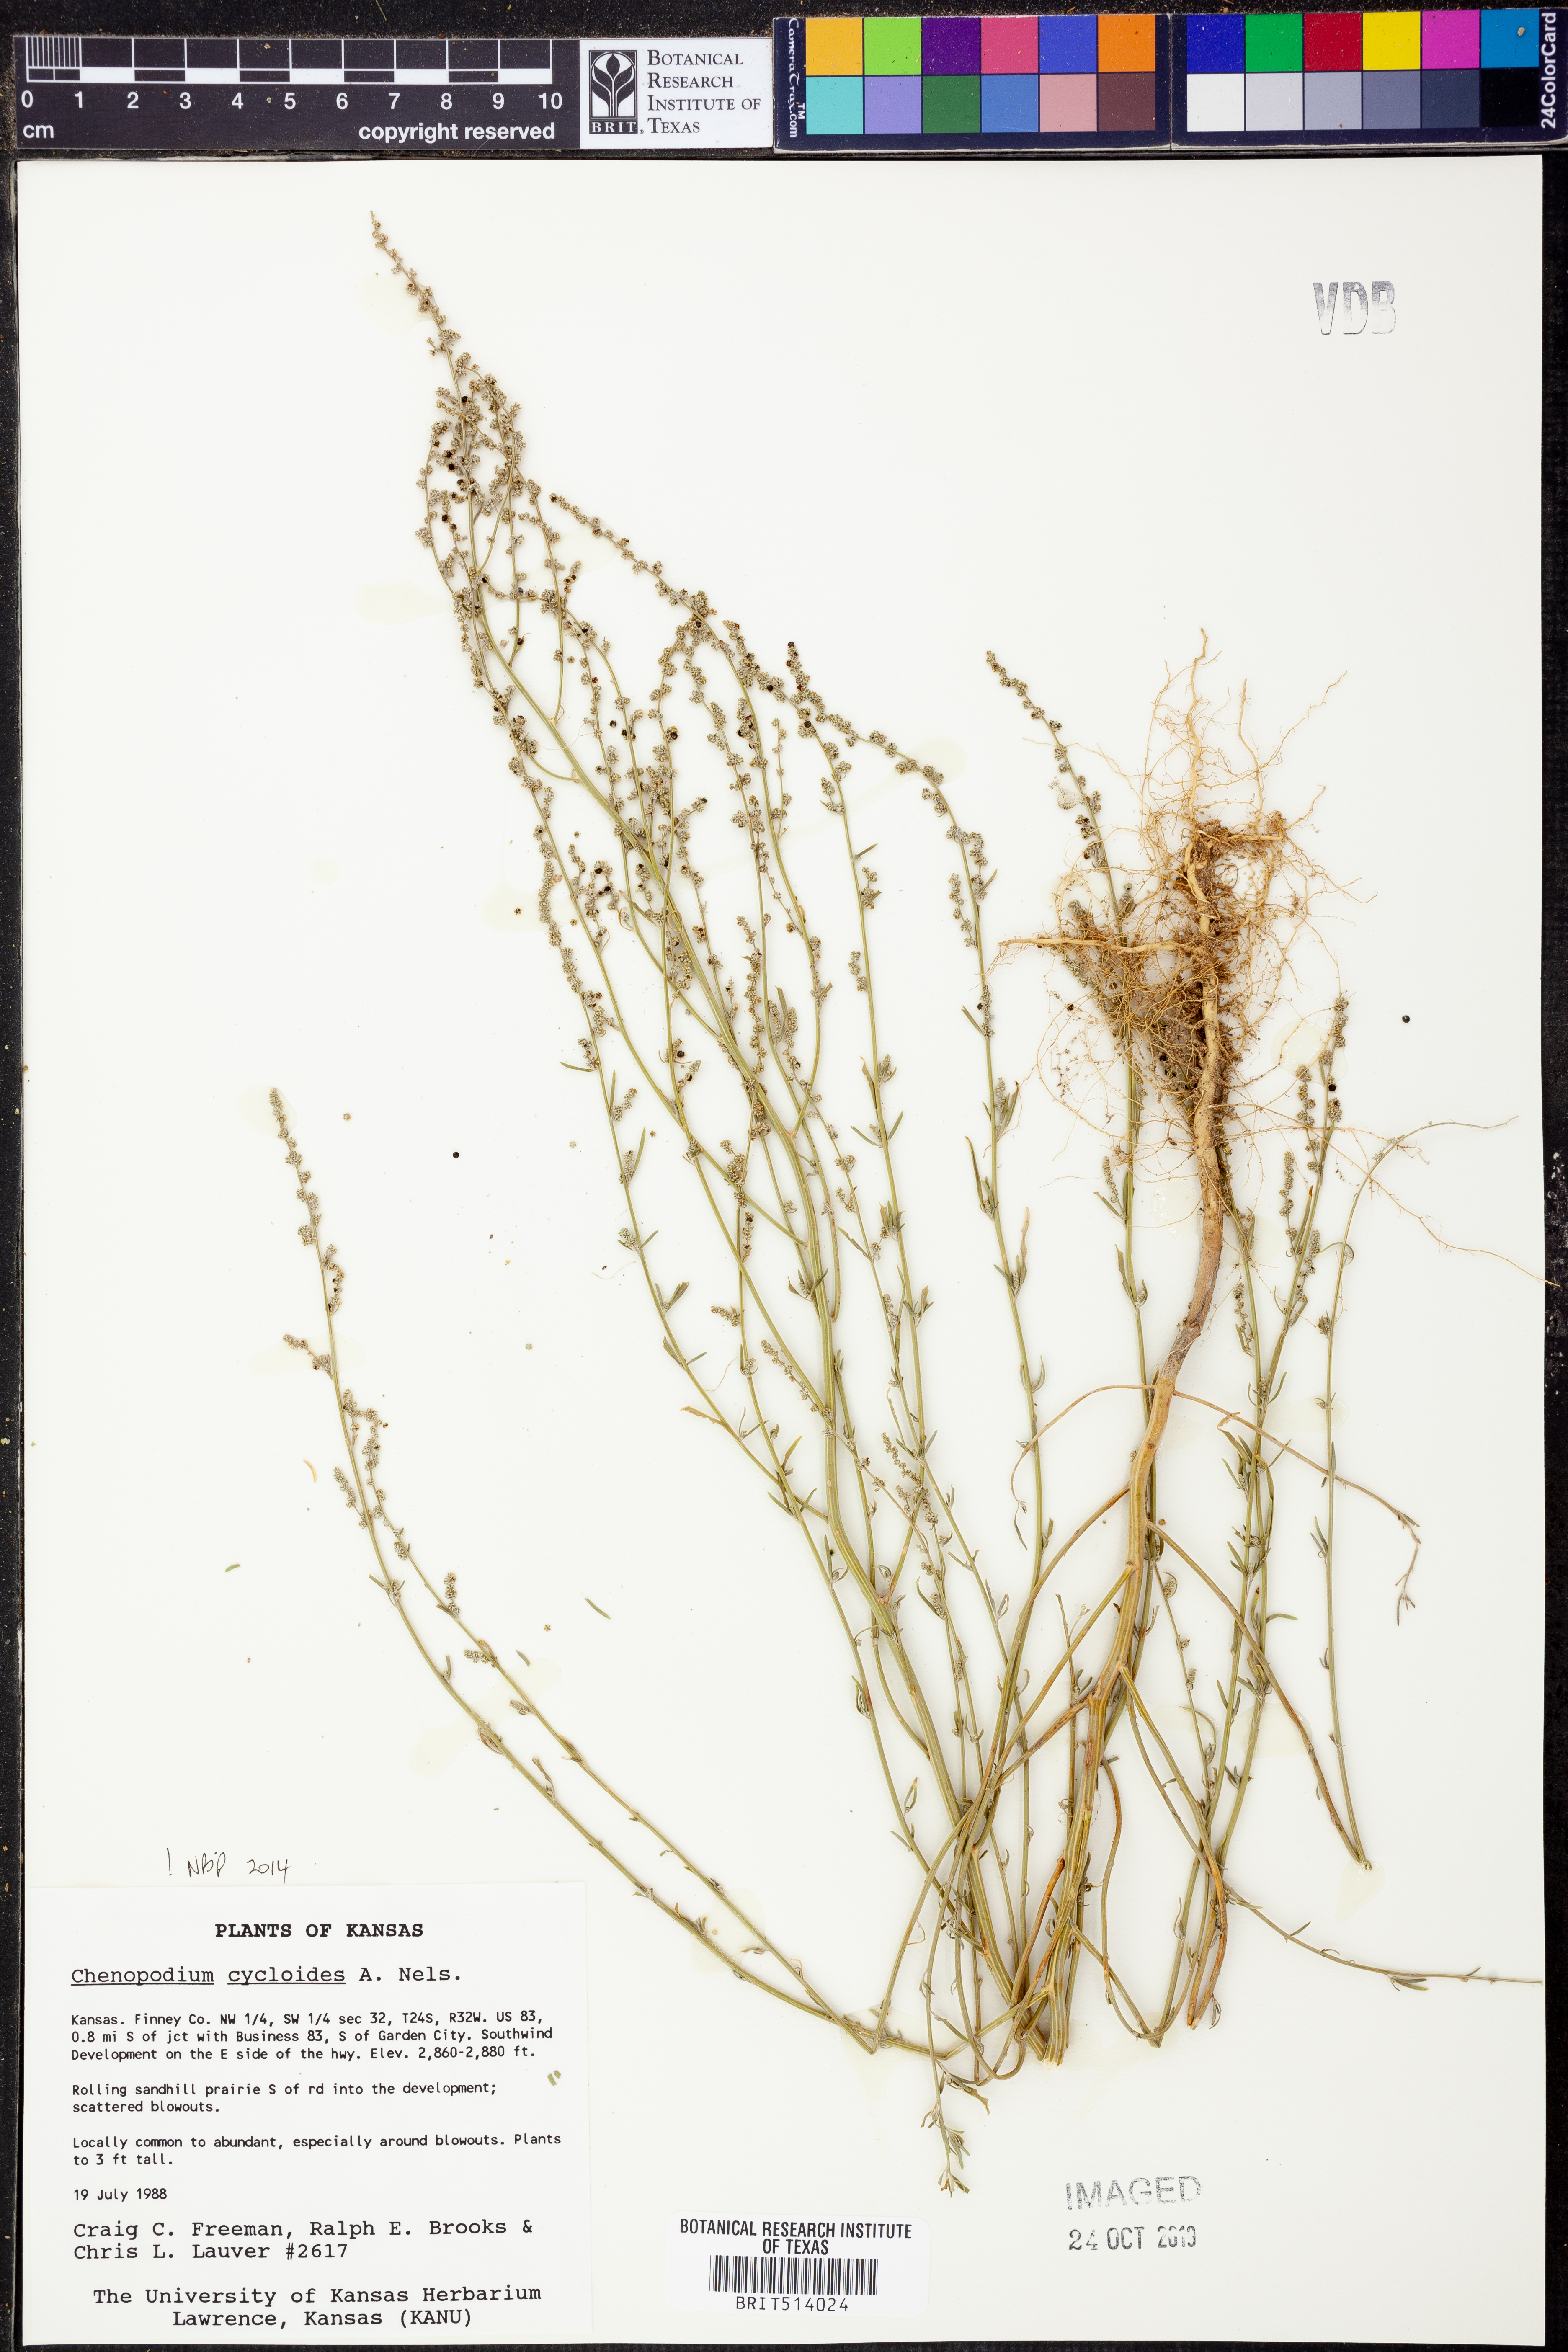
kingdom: Plantae
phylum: Tracheophyta
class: Magnoliopsida
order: Caryophyllales
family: Amaranthaceae
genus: Chenopodium
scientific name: Chenopodium cycloides
